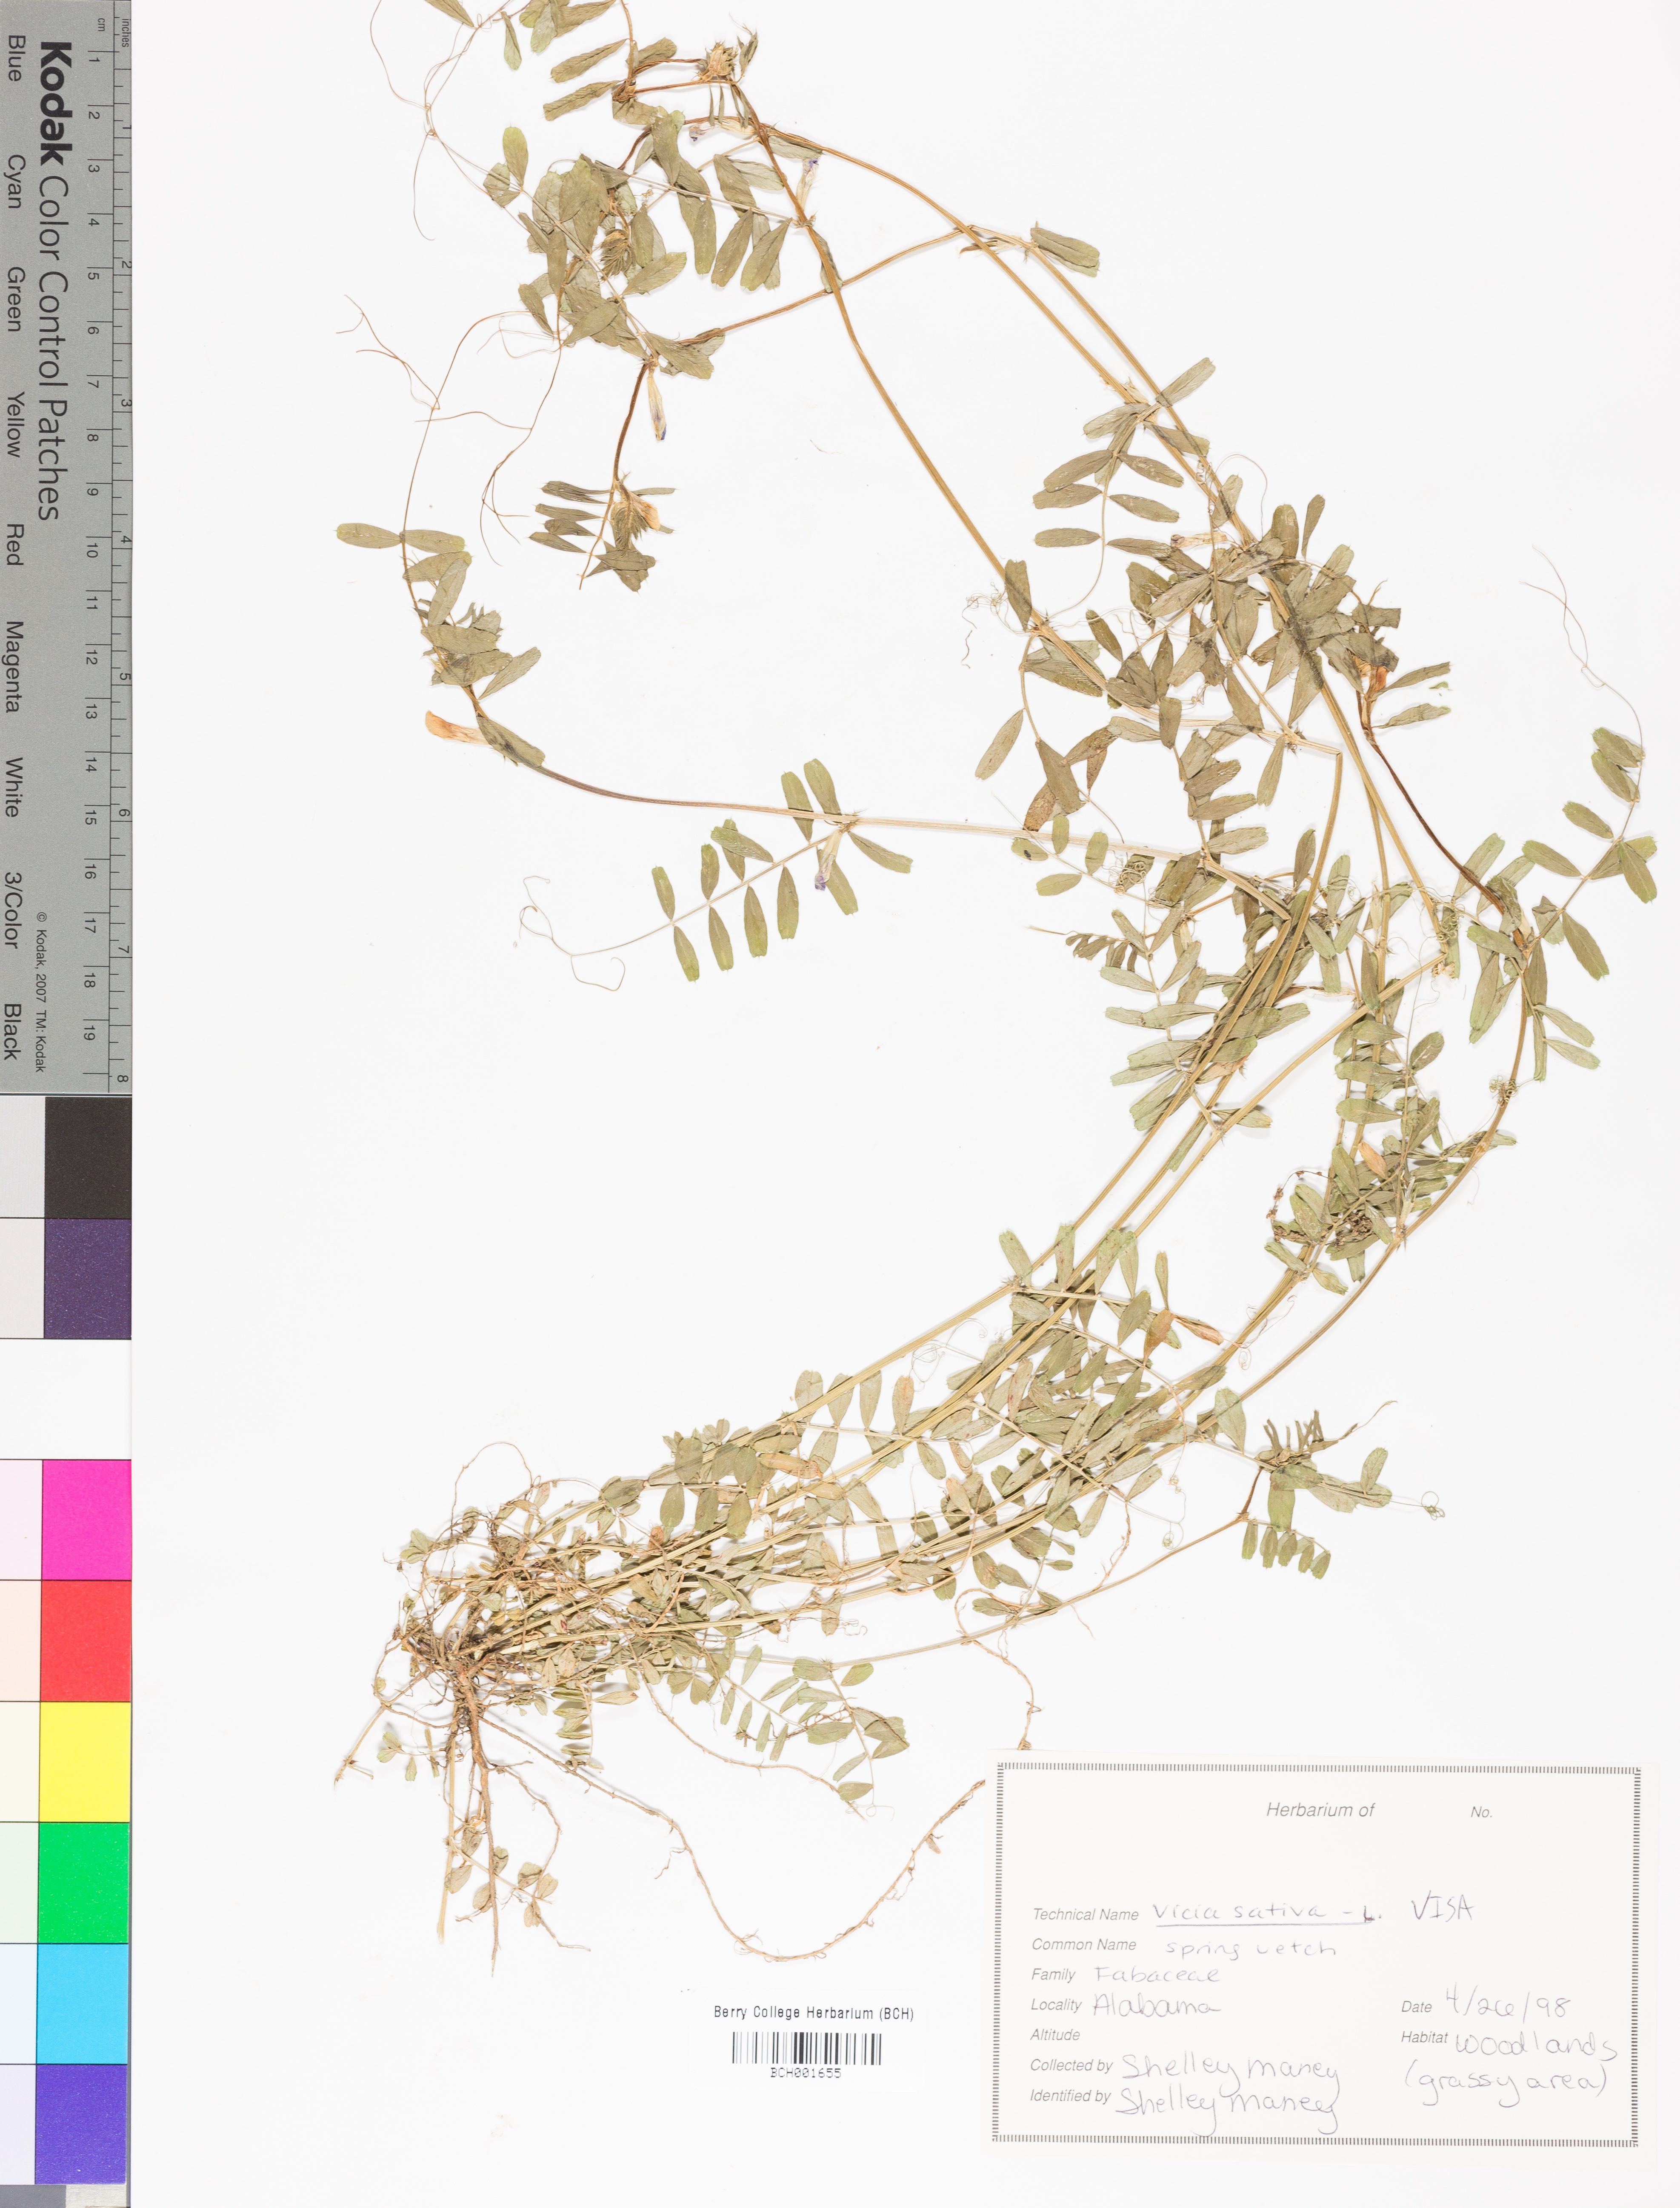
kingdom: Plantae
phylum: Tracheophyta
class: Magnoliopsida
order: Fabales
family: Fabaceae
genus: Vicia
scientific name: Vicia sativa
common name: Garden vetch
